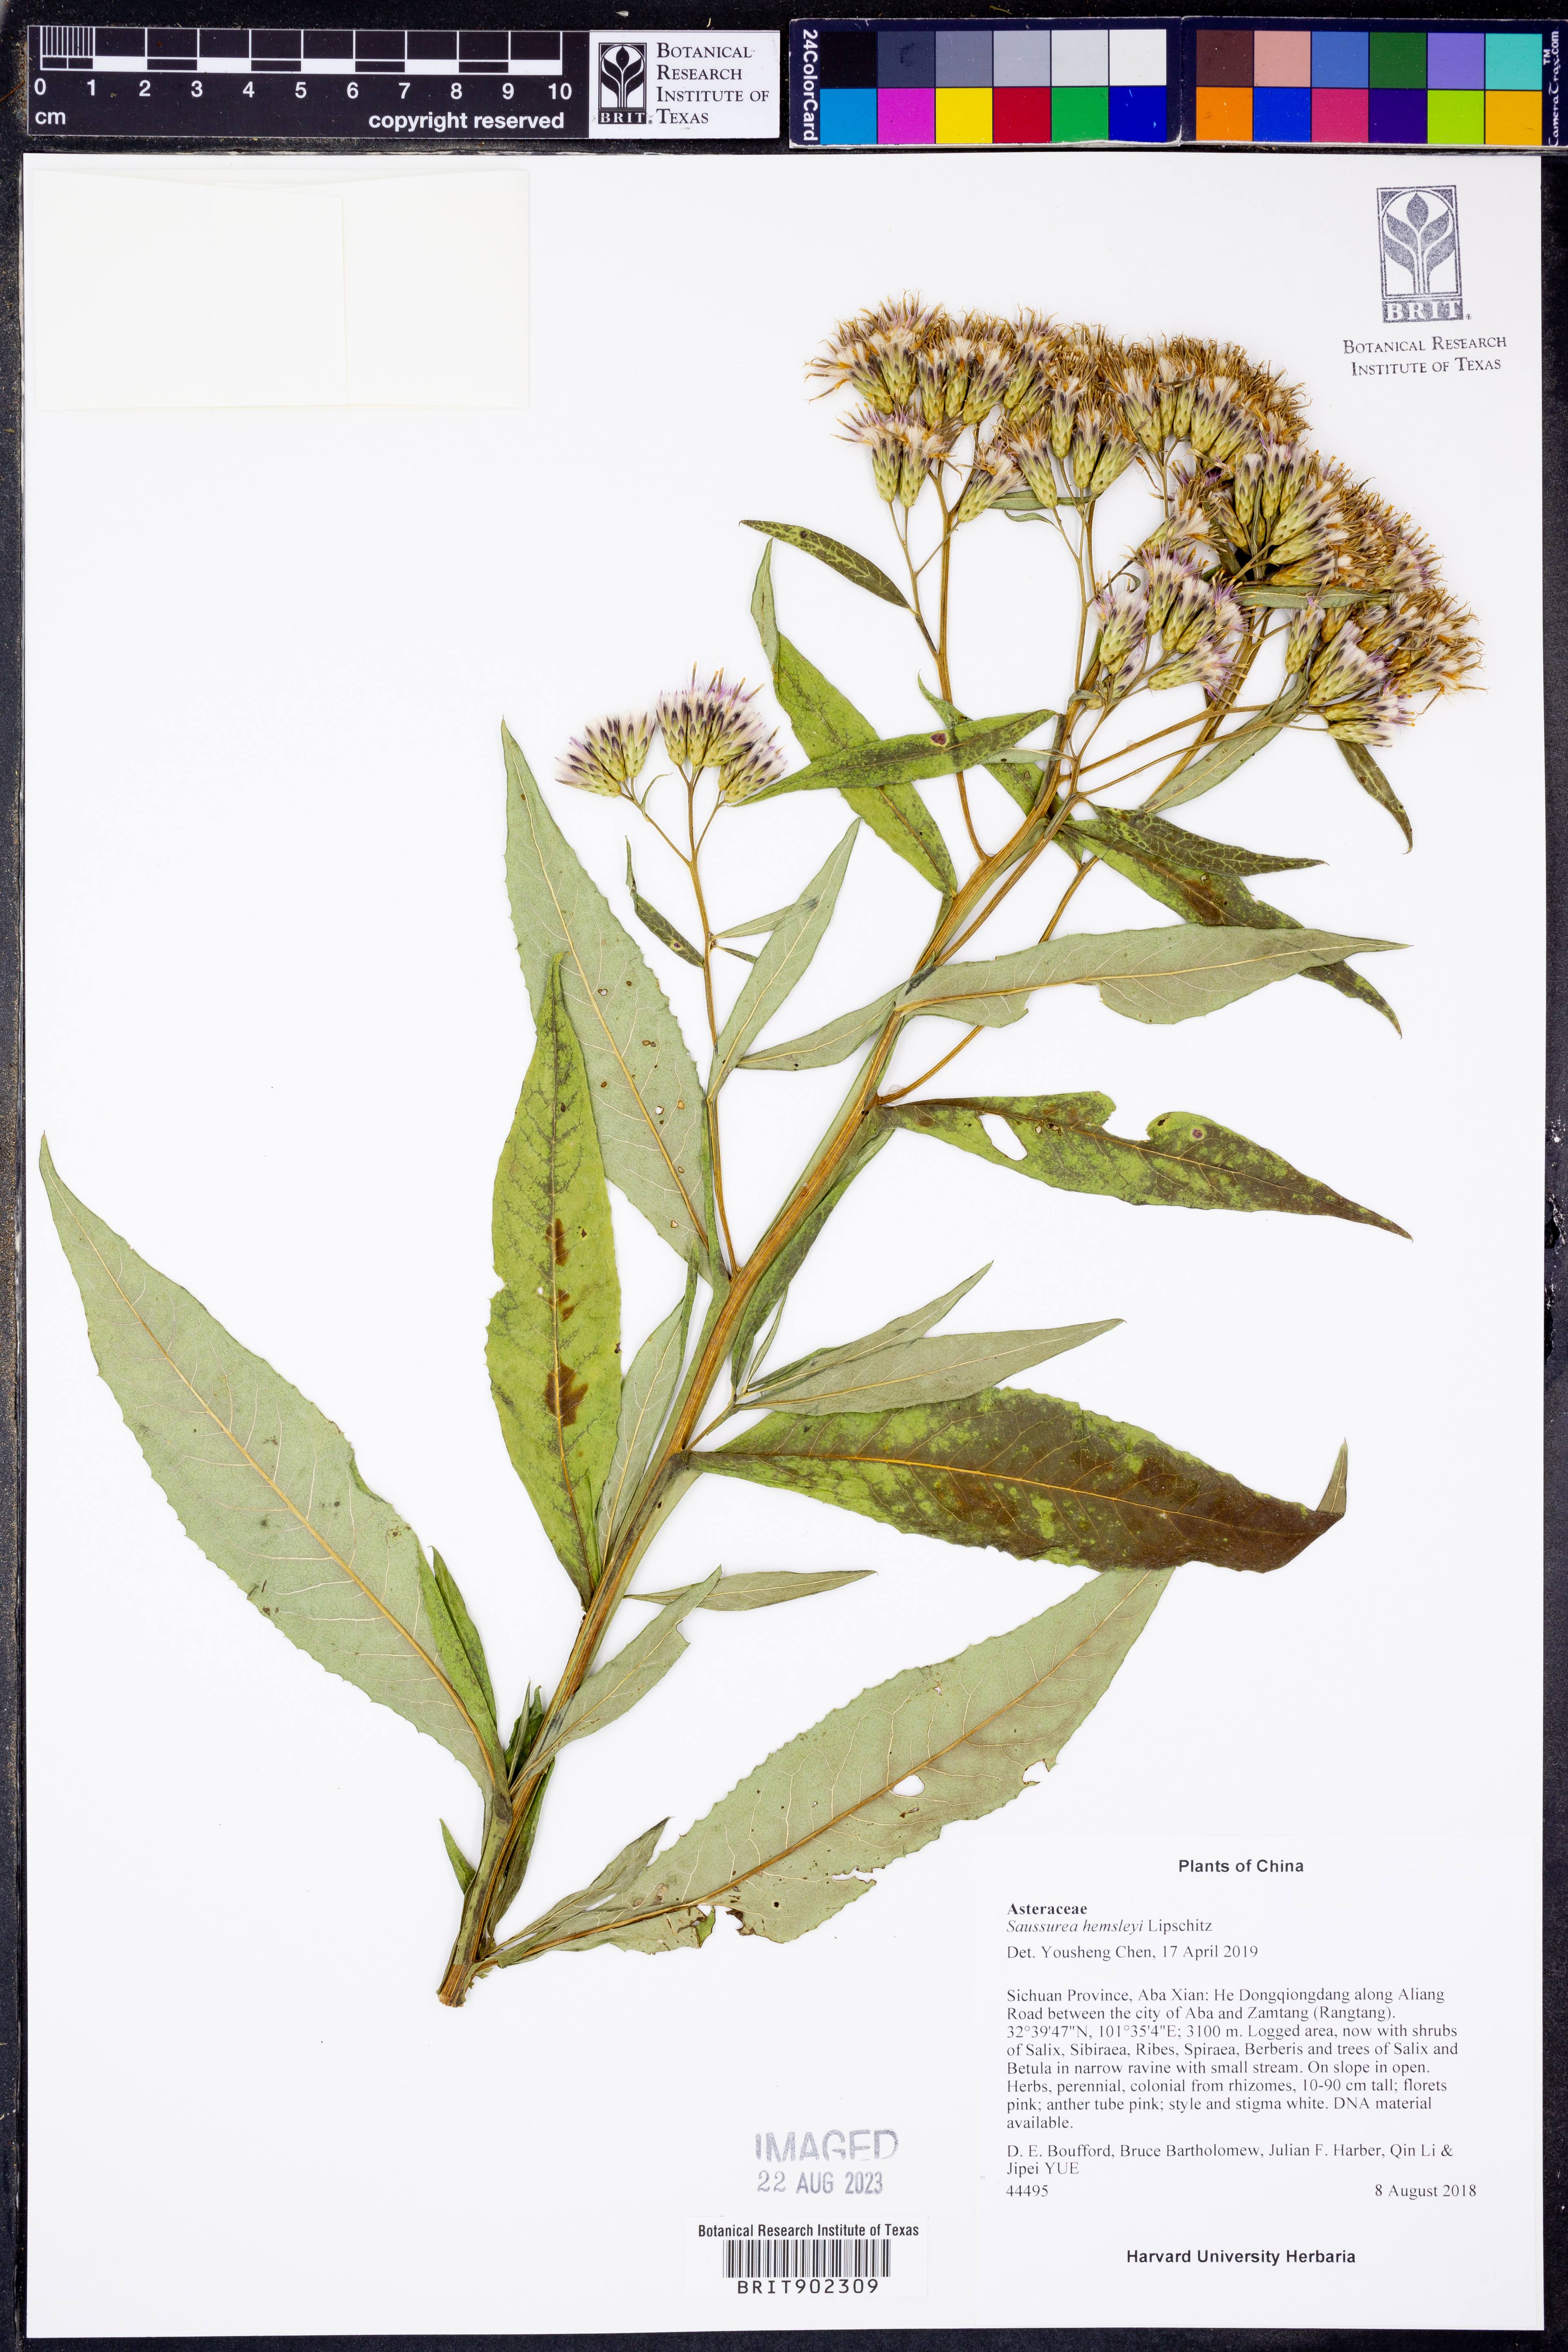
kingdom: Plantae
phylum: Tracheophyta
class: Magnoliopsida
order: Asterales
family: Asteraceae
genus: Saussurea
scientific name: Saussurea hemsleyi
